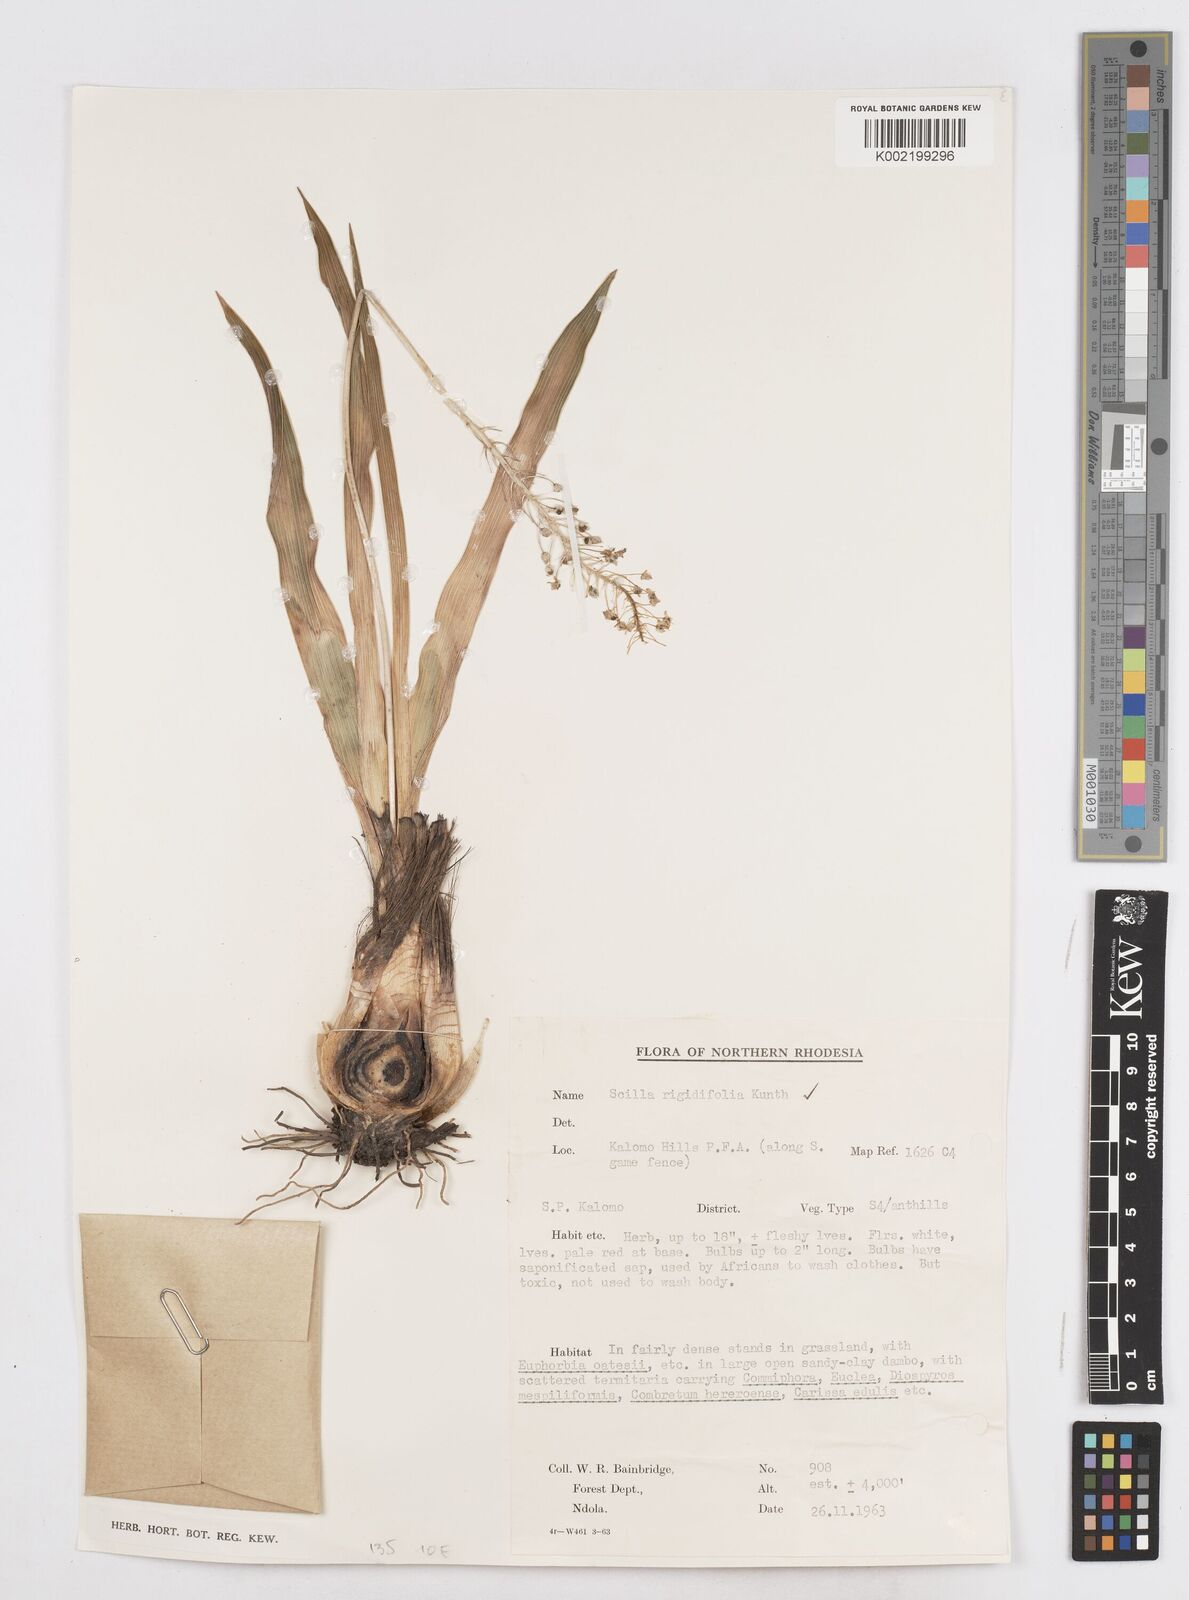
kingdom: Plantae
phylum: Tracheophyta
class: Liliopsida
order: Asparagales
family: Asparagaceae
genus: Schizocarphus
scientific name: Schizocarphus nervosus
